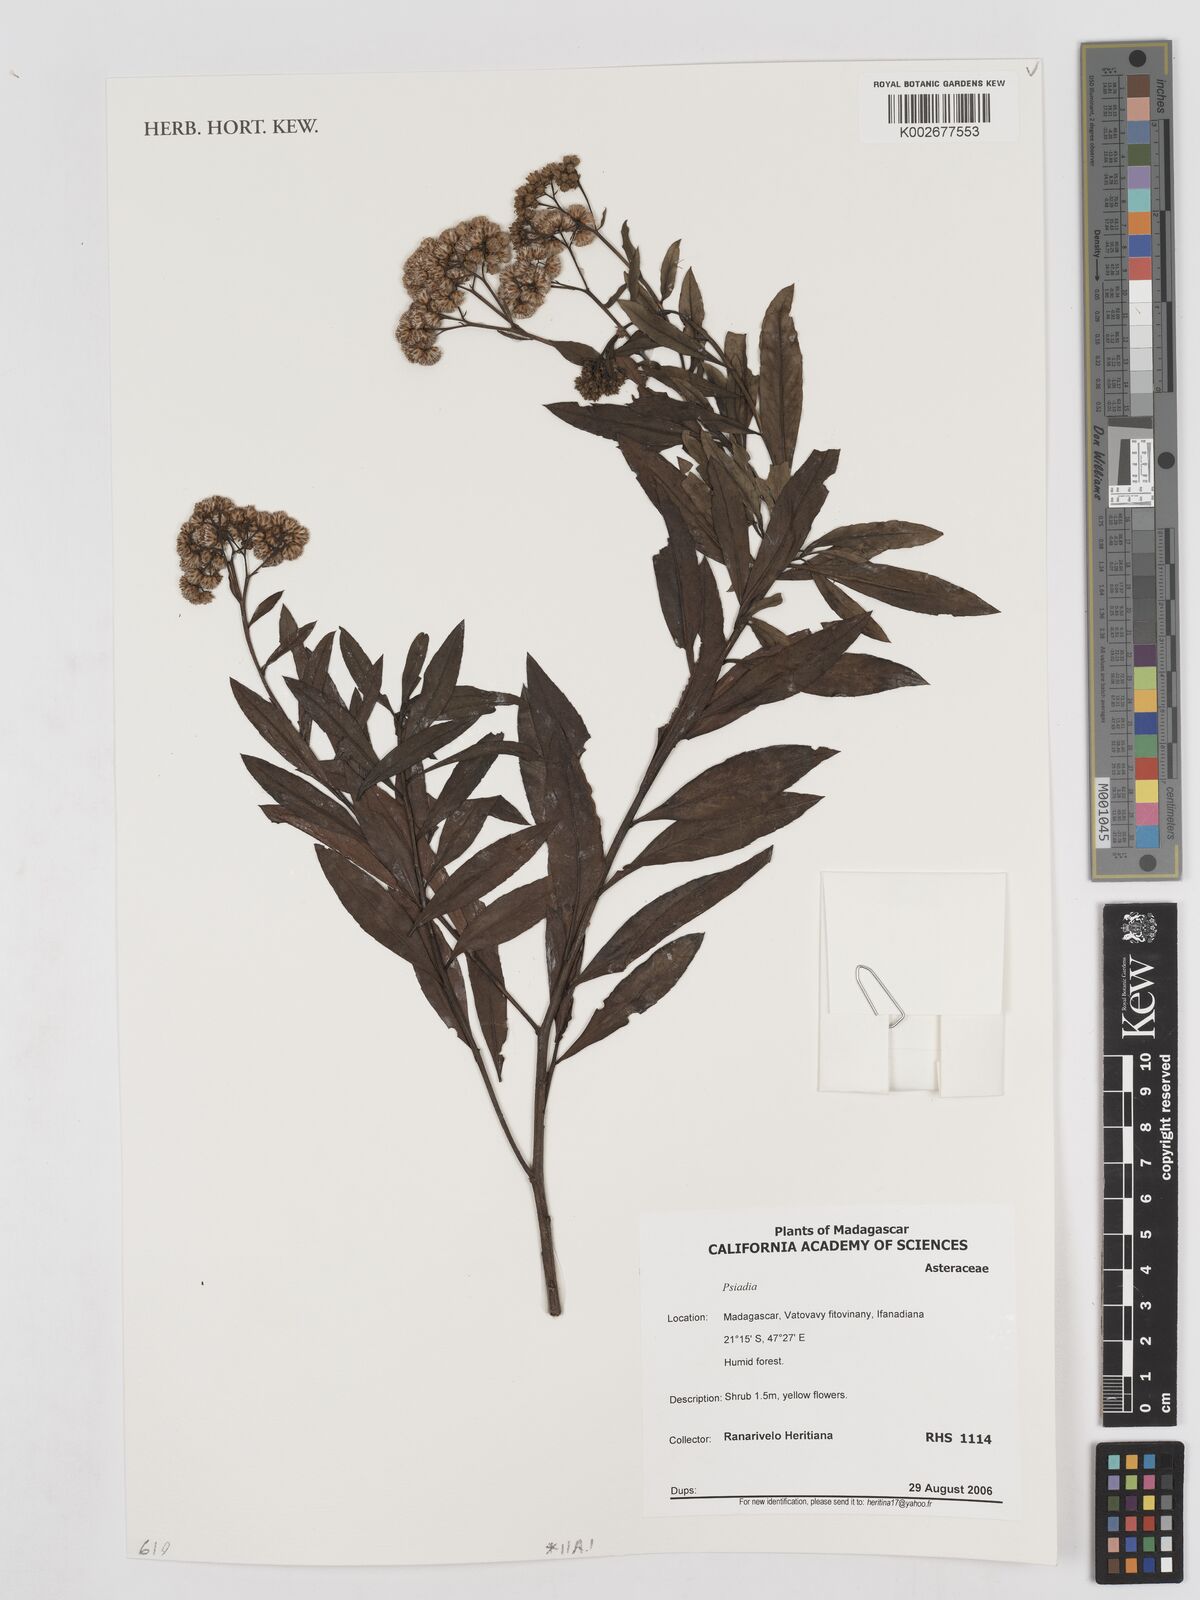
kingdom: Plantae
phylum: Tracheophyta
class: Magnoliopsida
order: Asterales
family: Asteraceae
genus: Psiadia
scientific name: Psiadia
